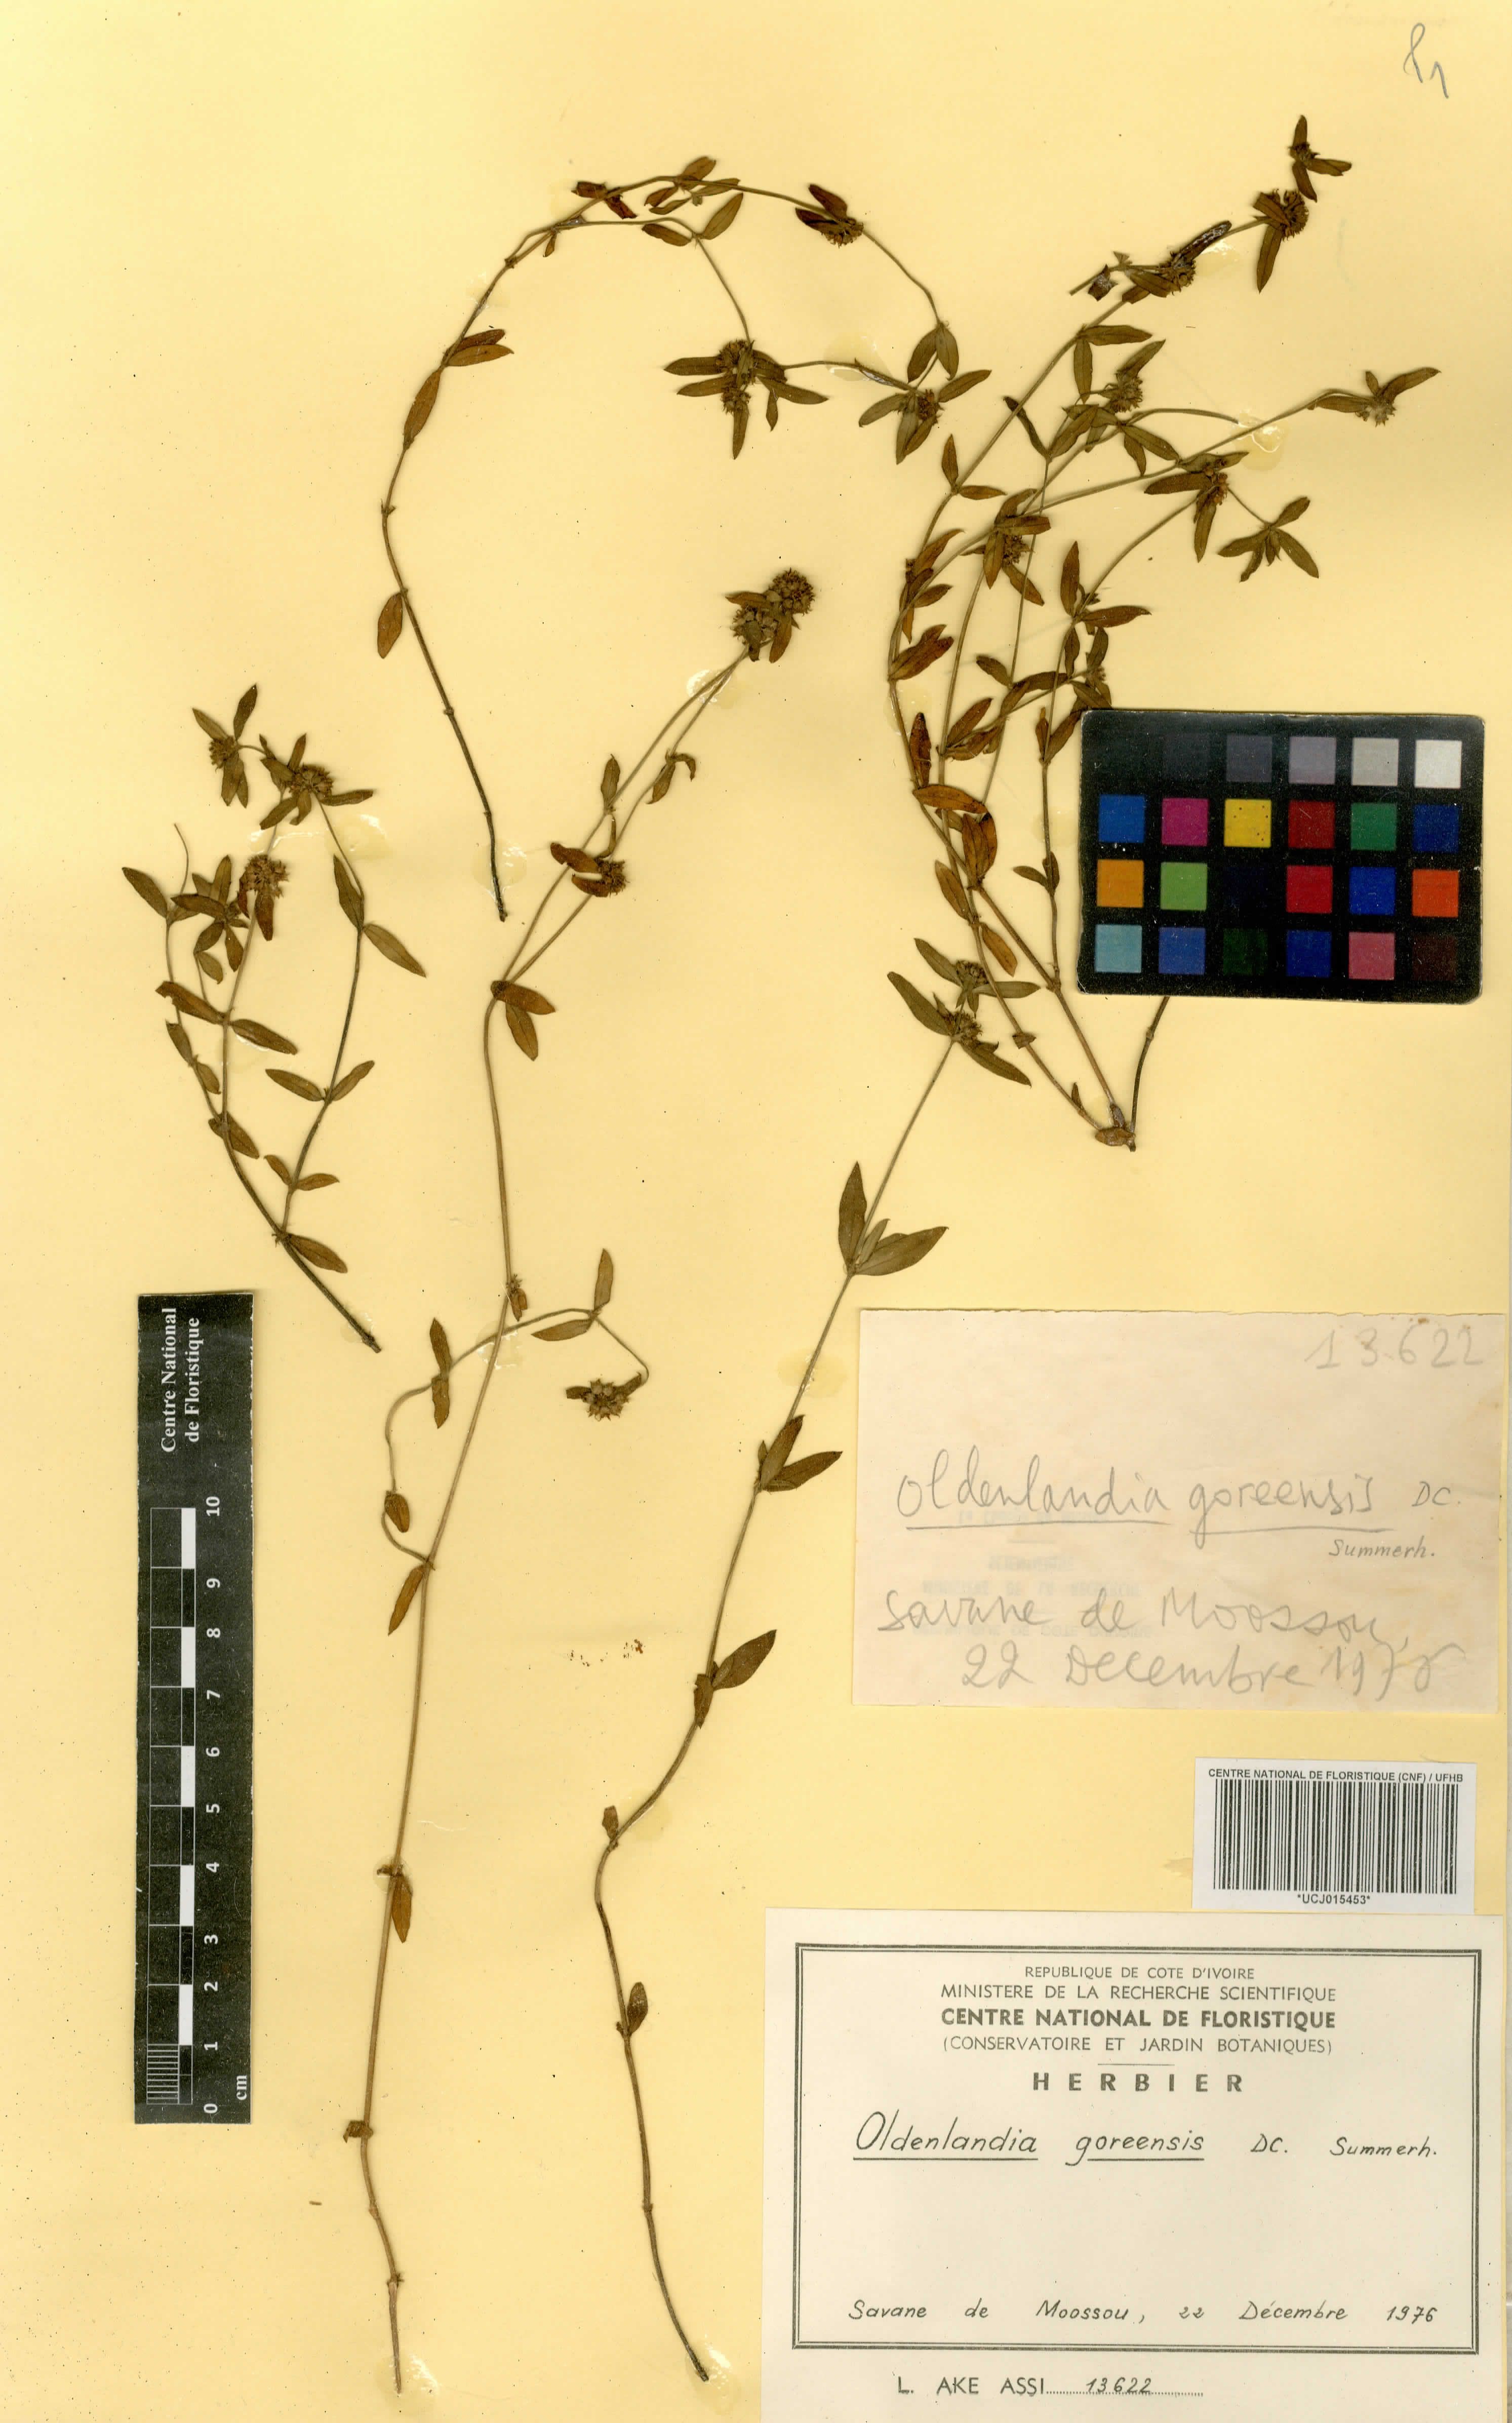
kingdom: Plantae
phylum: Tracheophyta
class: Magnoliopsida
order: Gentianales
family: Rubiaceae
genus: Edrastima
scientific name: Edrastima goreensis
